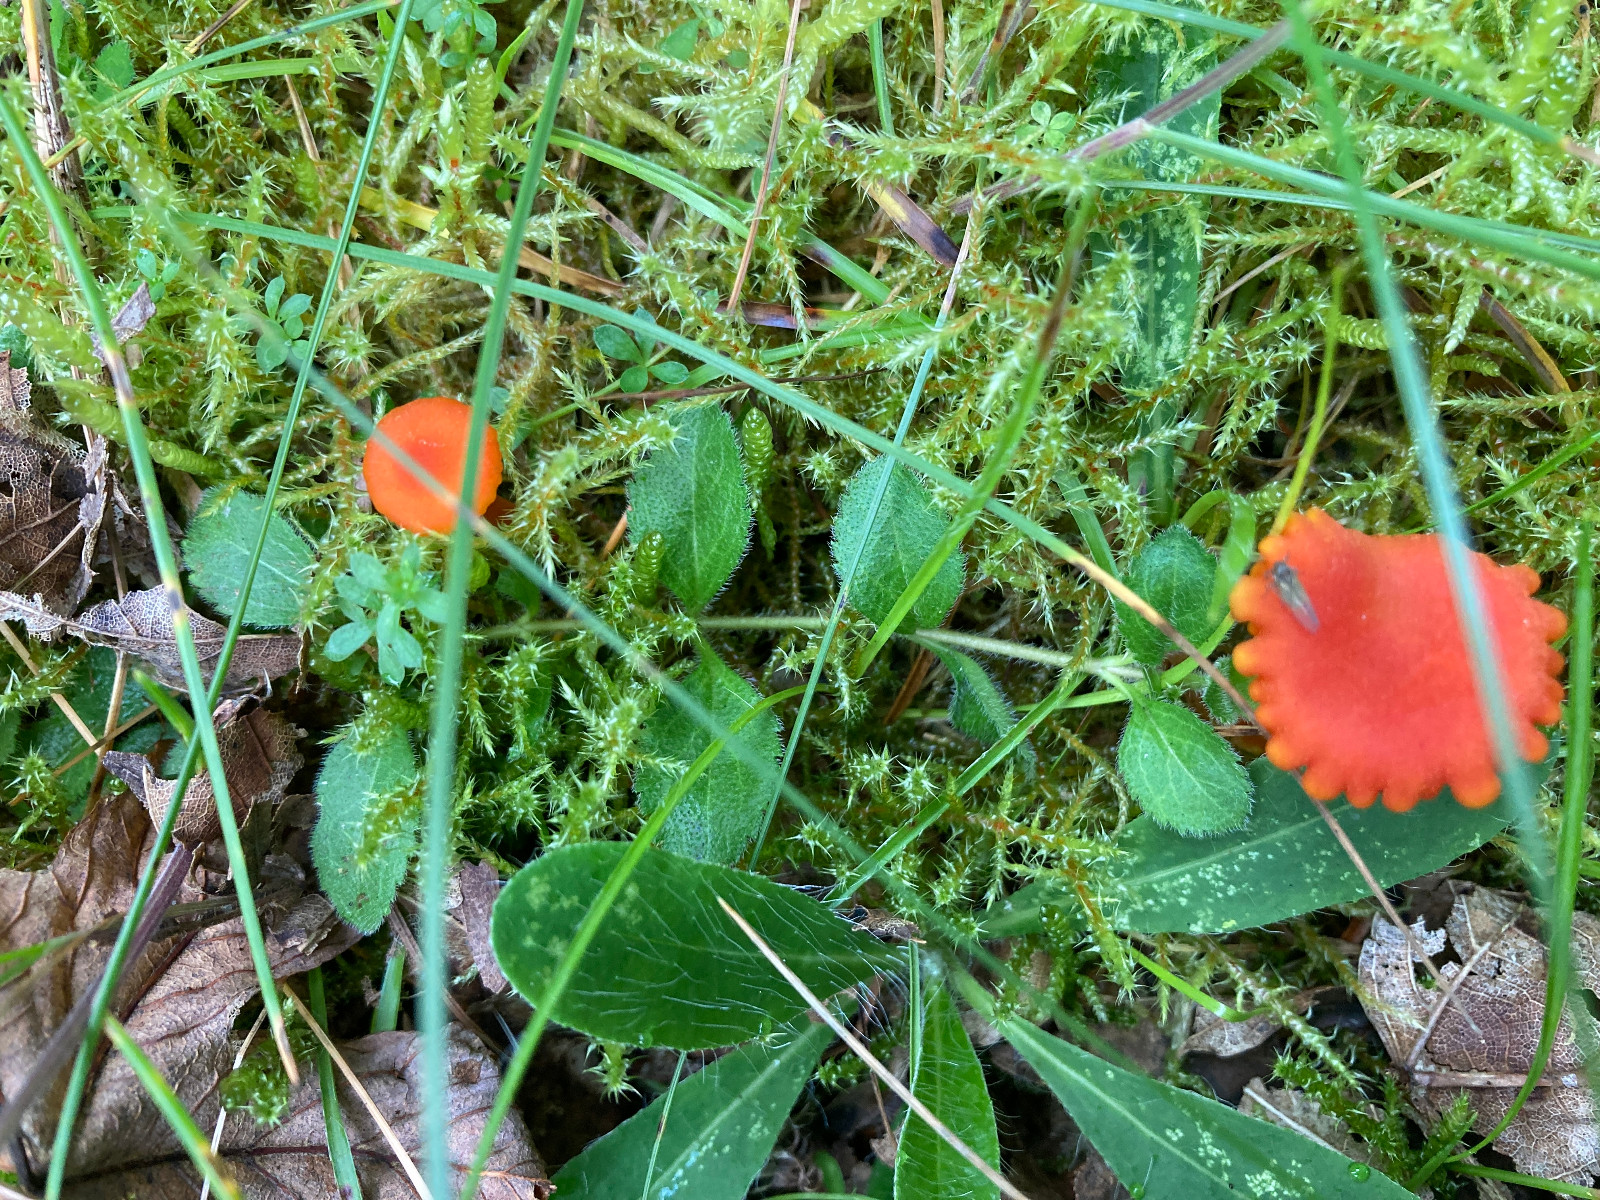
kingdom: Fungi
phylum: Basidiomycota
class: Agaricomycetes
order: Agaricales
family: Hygrophoraceae
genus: Hygrocybe
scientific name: Hygrocybe cantharellus
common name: kantarel-vokshat
